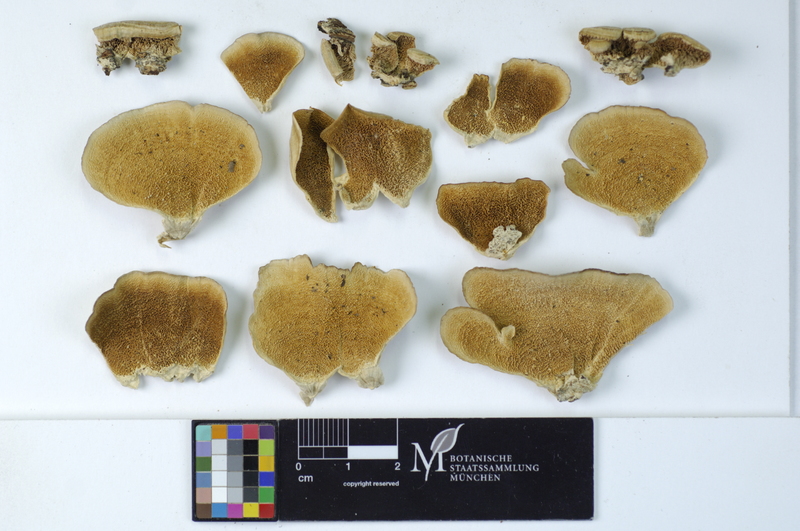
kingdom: Fungi
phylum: Basidiomycota
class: Agaricomycetes
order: Hymenochaetales
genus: Trichaptum
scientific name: Trichaptum biforme
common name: Violet-toothed polypore
